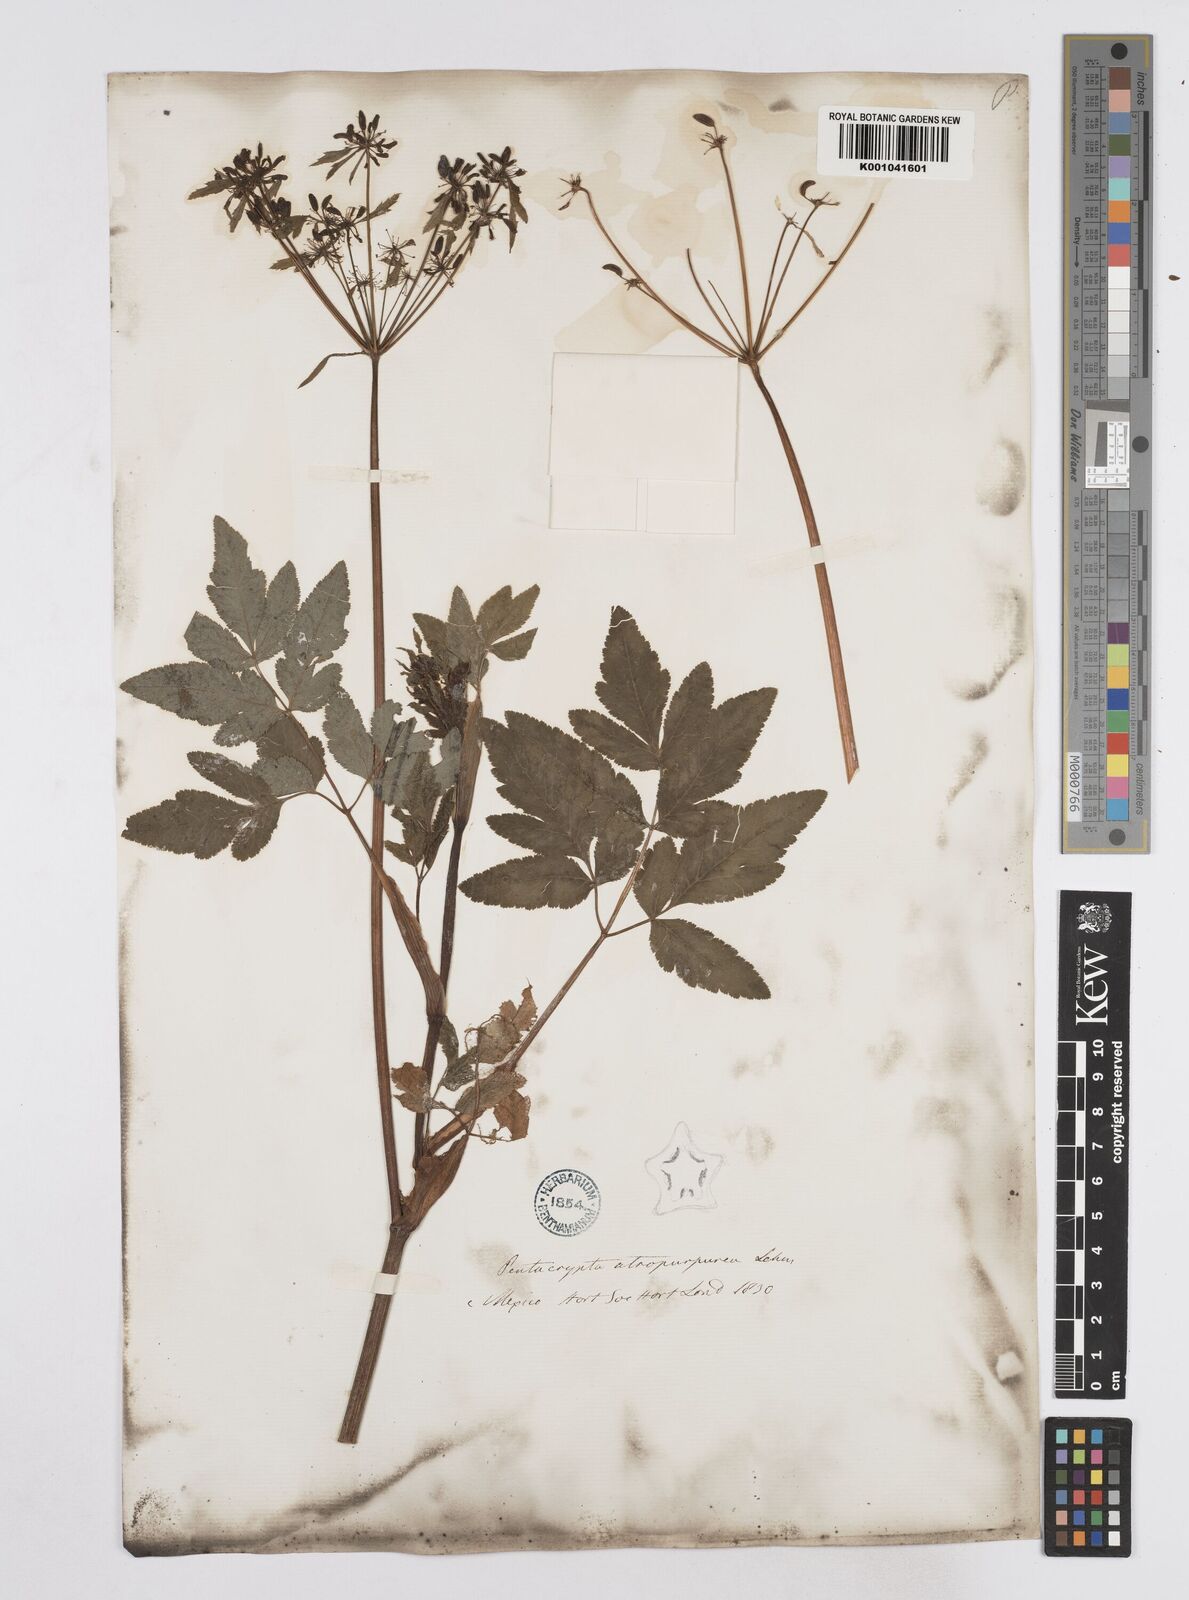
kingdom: Plantae
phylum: Tracheophyta
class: Magnoliopsida
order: Apiales
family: Apiaceae
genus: Arracacia
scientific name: Arracacia atropurpurea
